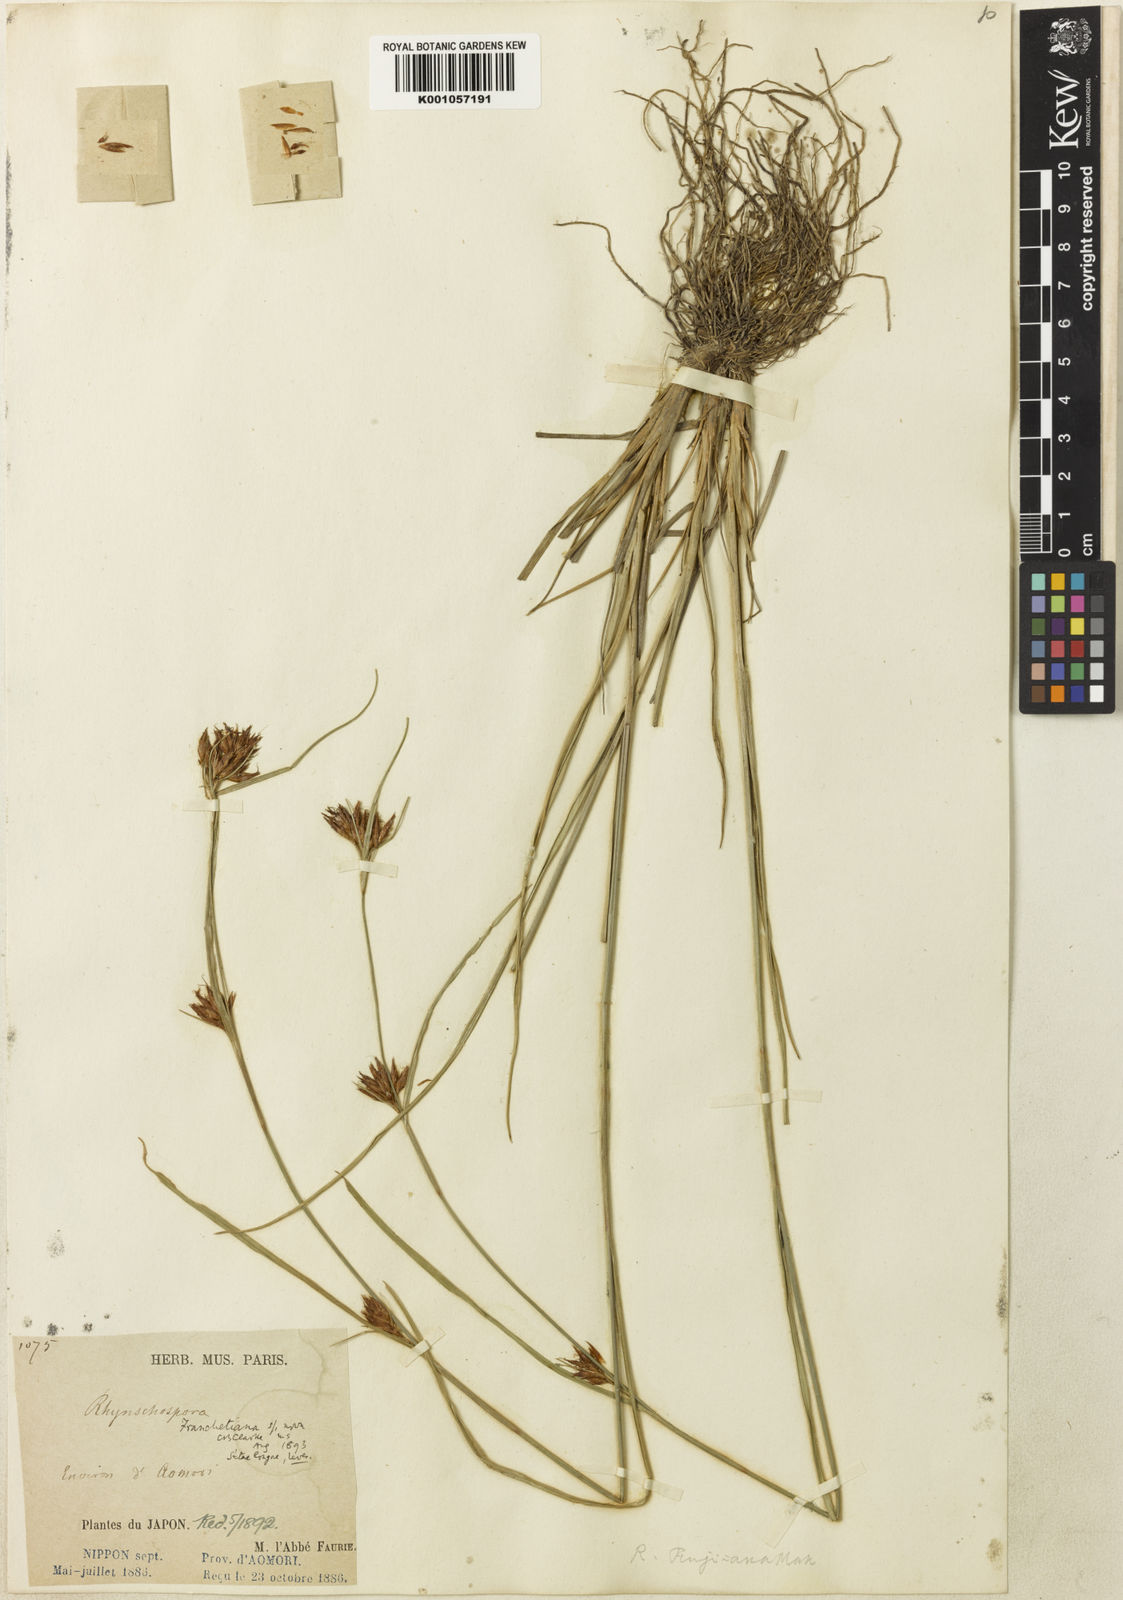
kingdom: Plantae
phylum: Tracheophyta
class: Liliopsida
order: Poales
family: Cyperaceae
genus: Rhynchospora
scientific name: Rhynchospora
